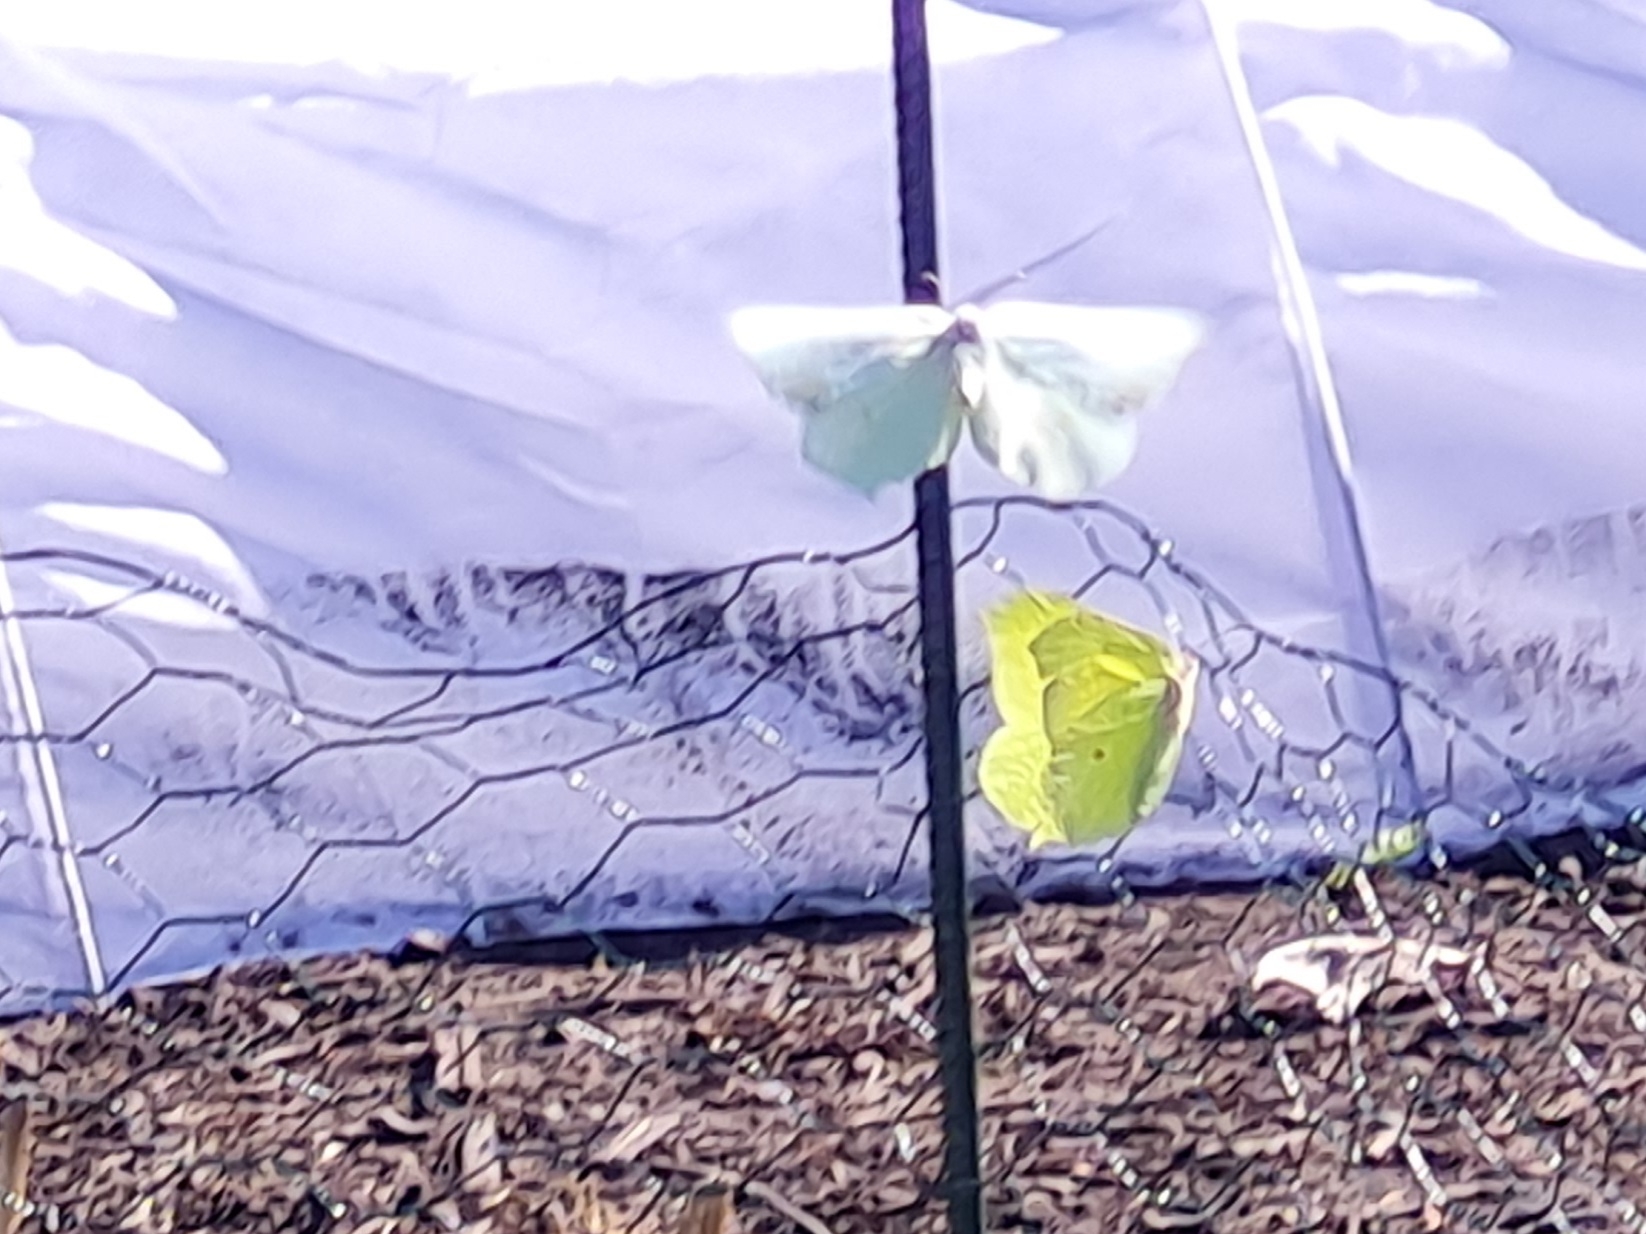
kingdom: Animalia
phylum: Arthropoda
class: Insecta
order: Lepidoptera
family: Pieridae
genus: Gonepteryx
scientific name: Gonepteryx rhamni
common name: Citronsommerfugl
